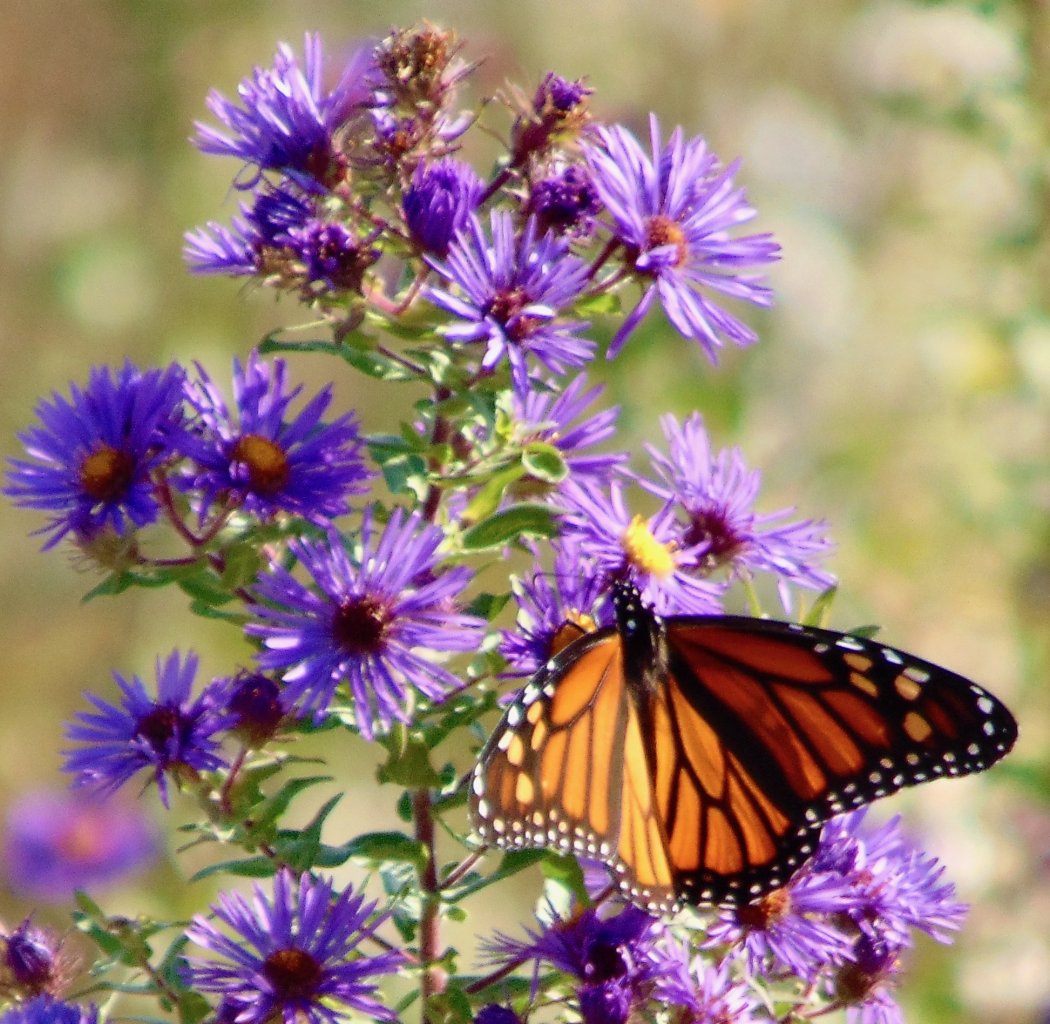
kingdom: Animalia
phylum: Arthropoda
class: Insecta
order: Lepidoptera
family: Nymphalidae
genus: Danaus
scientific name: Danaus plexippus
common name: Monarch
